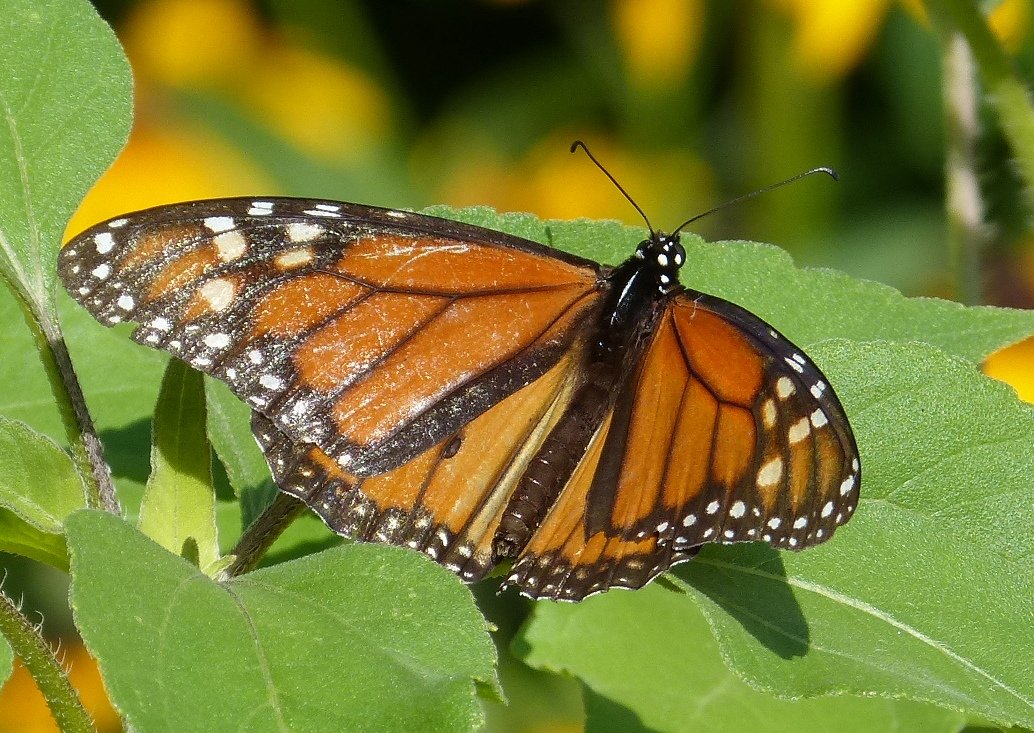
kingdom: Animalia
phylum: Arthropoda
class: Insecta
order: Lepidoptera
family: Nymphalidae
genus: Danaus
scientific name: Danaus plexippus
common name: Monarch
